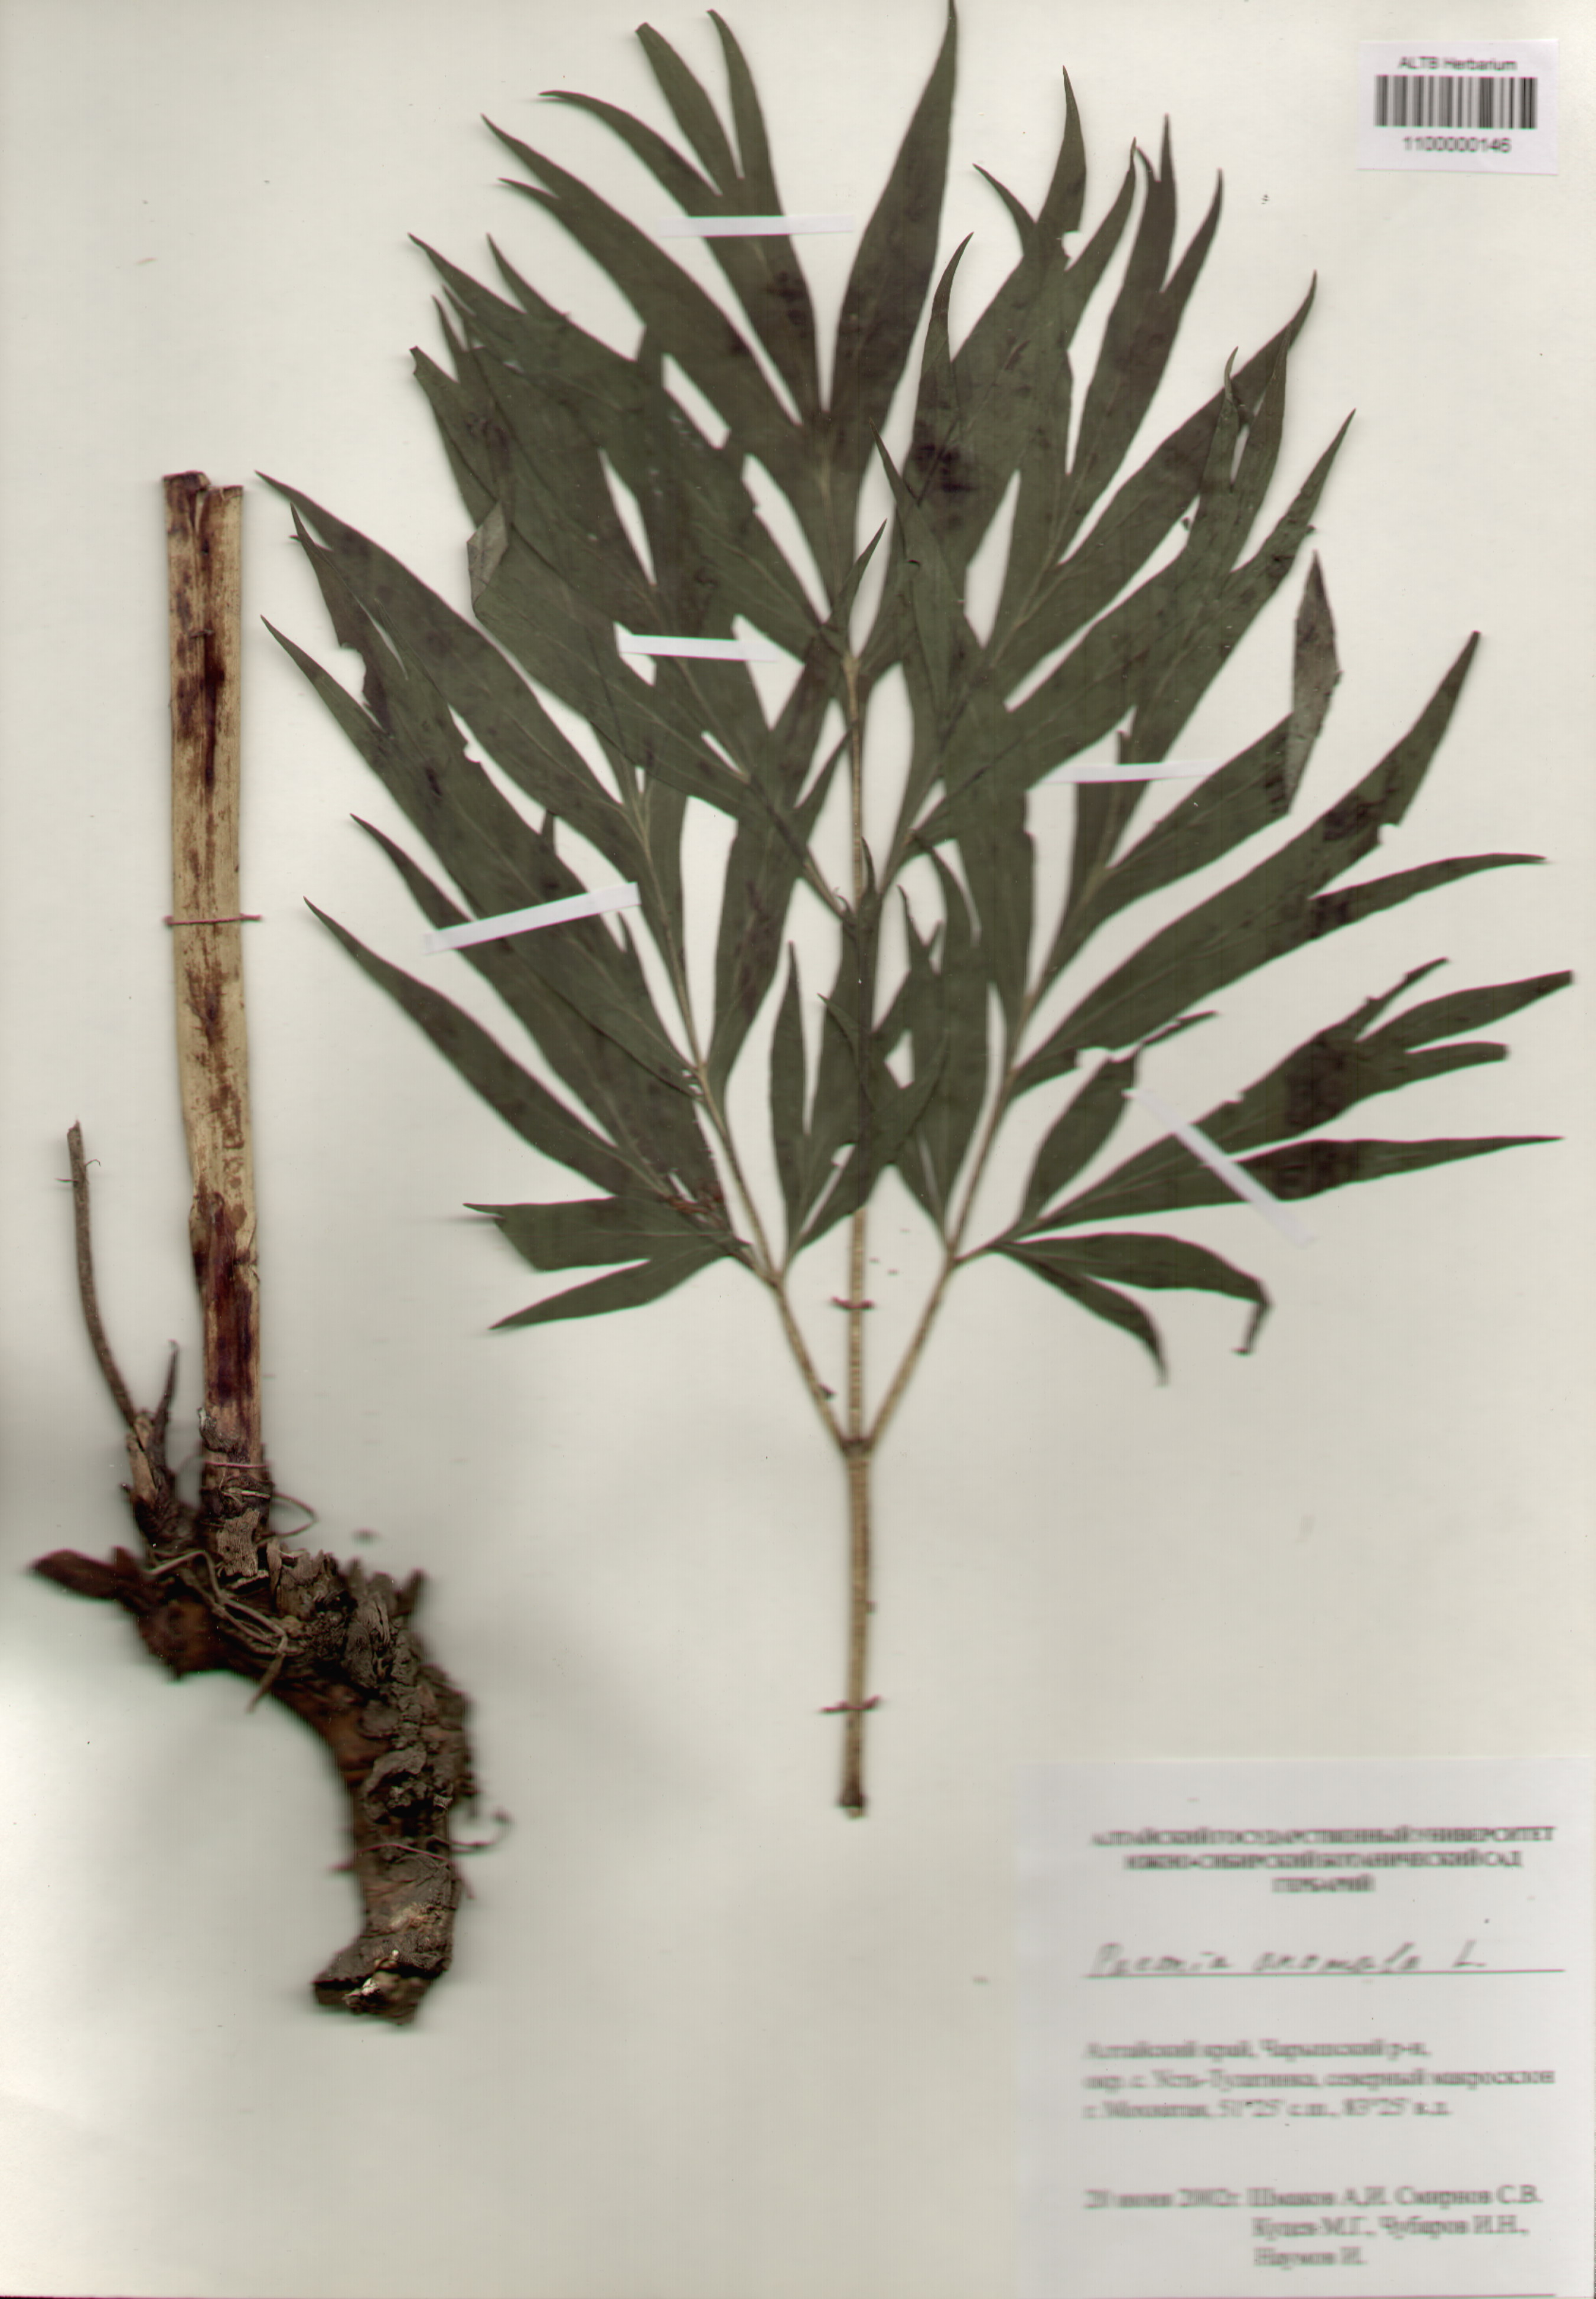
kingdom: Plantae
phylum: Tracheophyta
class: Magnoliopsida
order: Saxifragales
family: Paeoniaceae
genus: Paeonia
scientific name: Paeonia anomala
